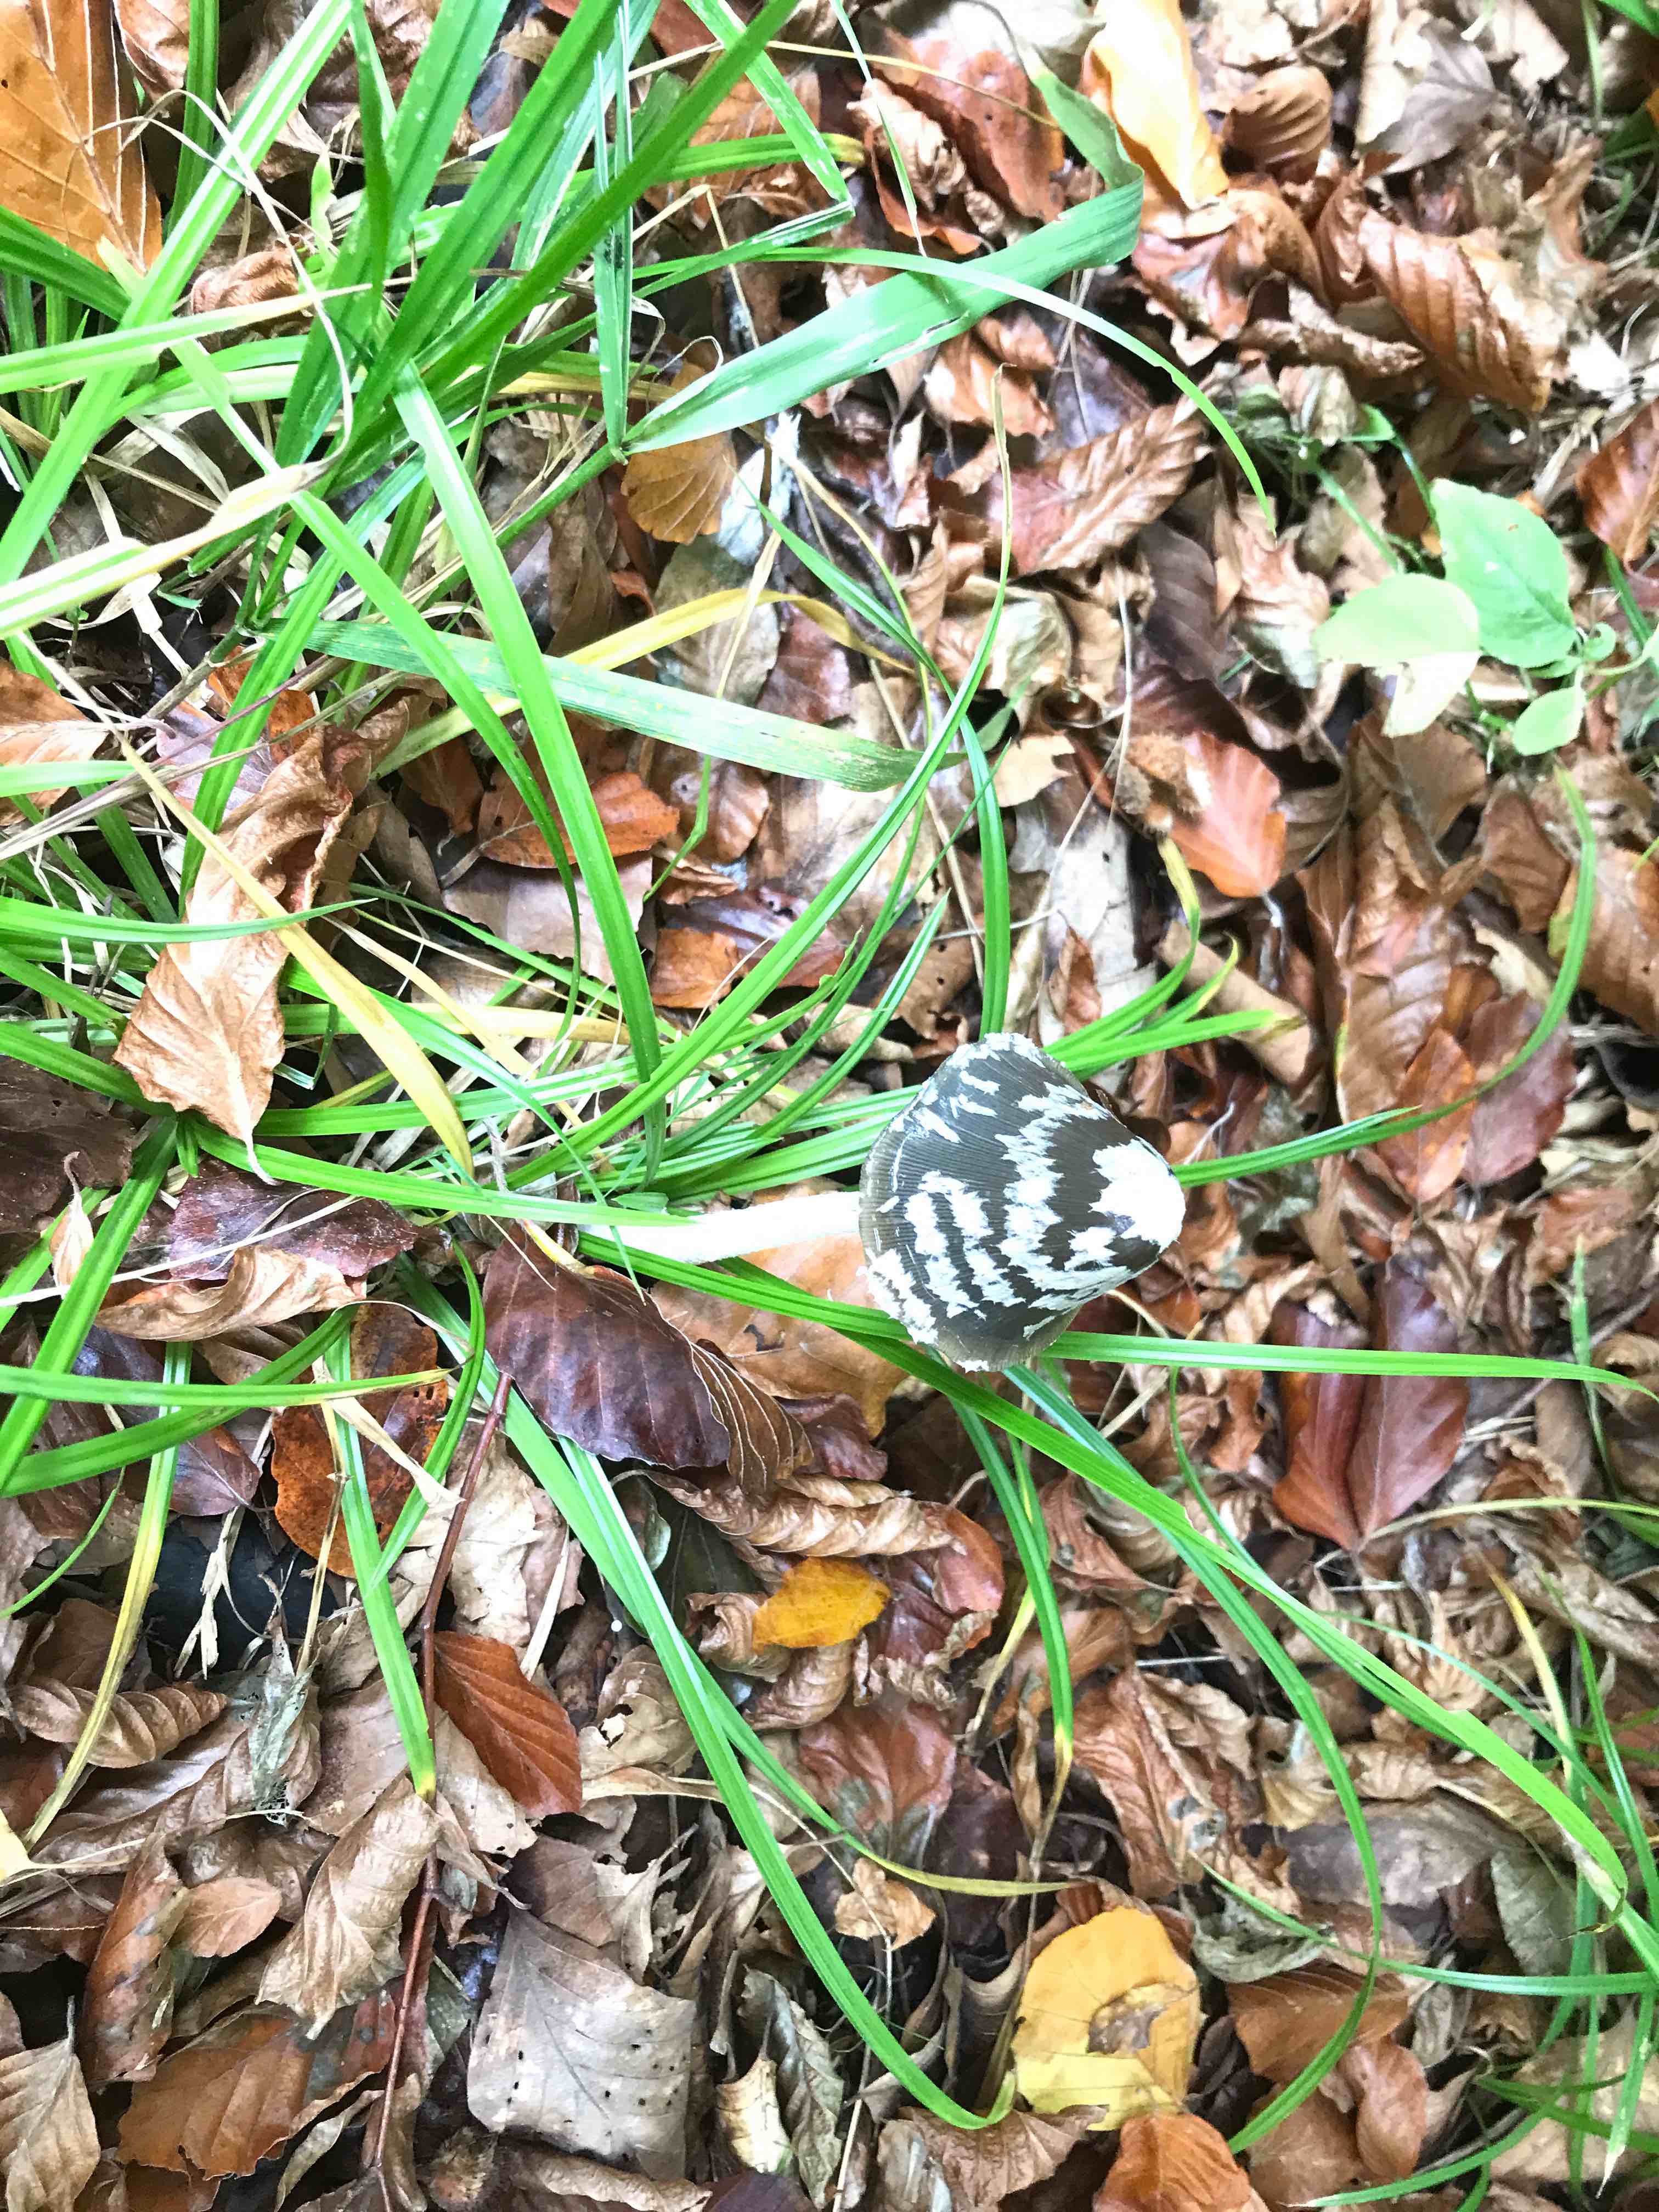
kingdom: Fungi
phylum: Basidiomycota
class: Agaricomycetes
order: Agaricales
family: Psathyrellaceae
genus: Coprinopsis
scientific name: Coprinopsis picacea
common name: skade-blækhat
